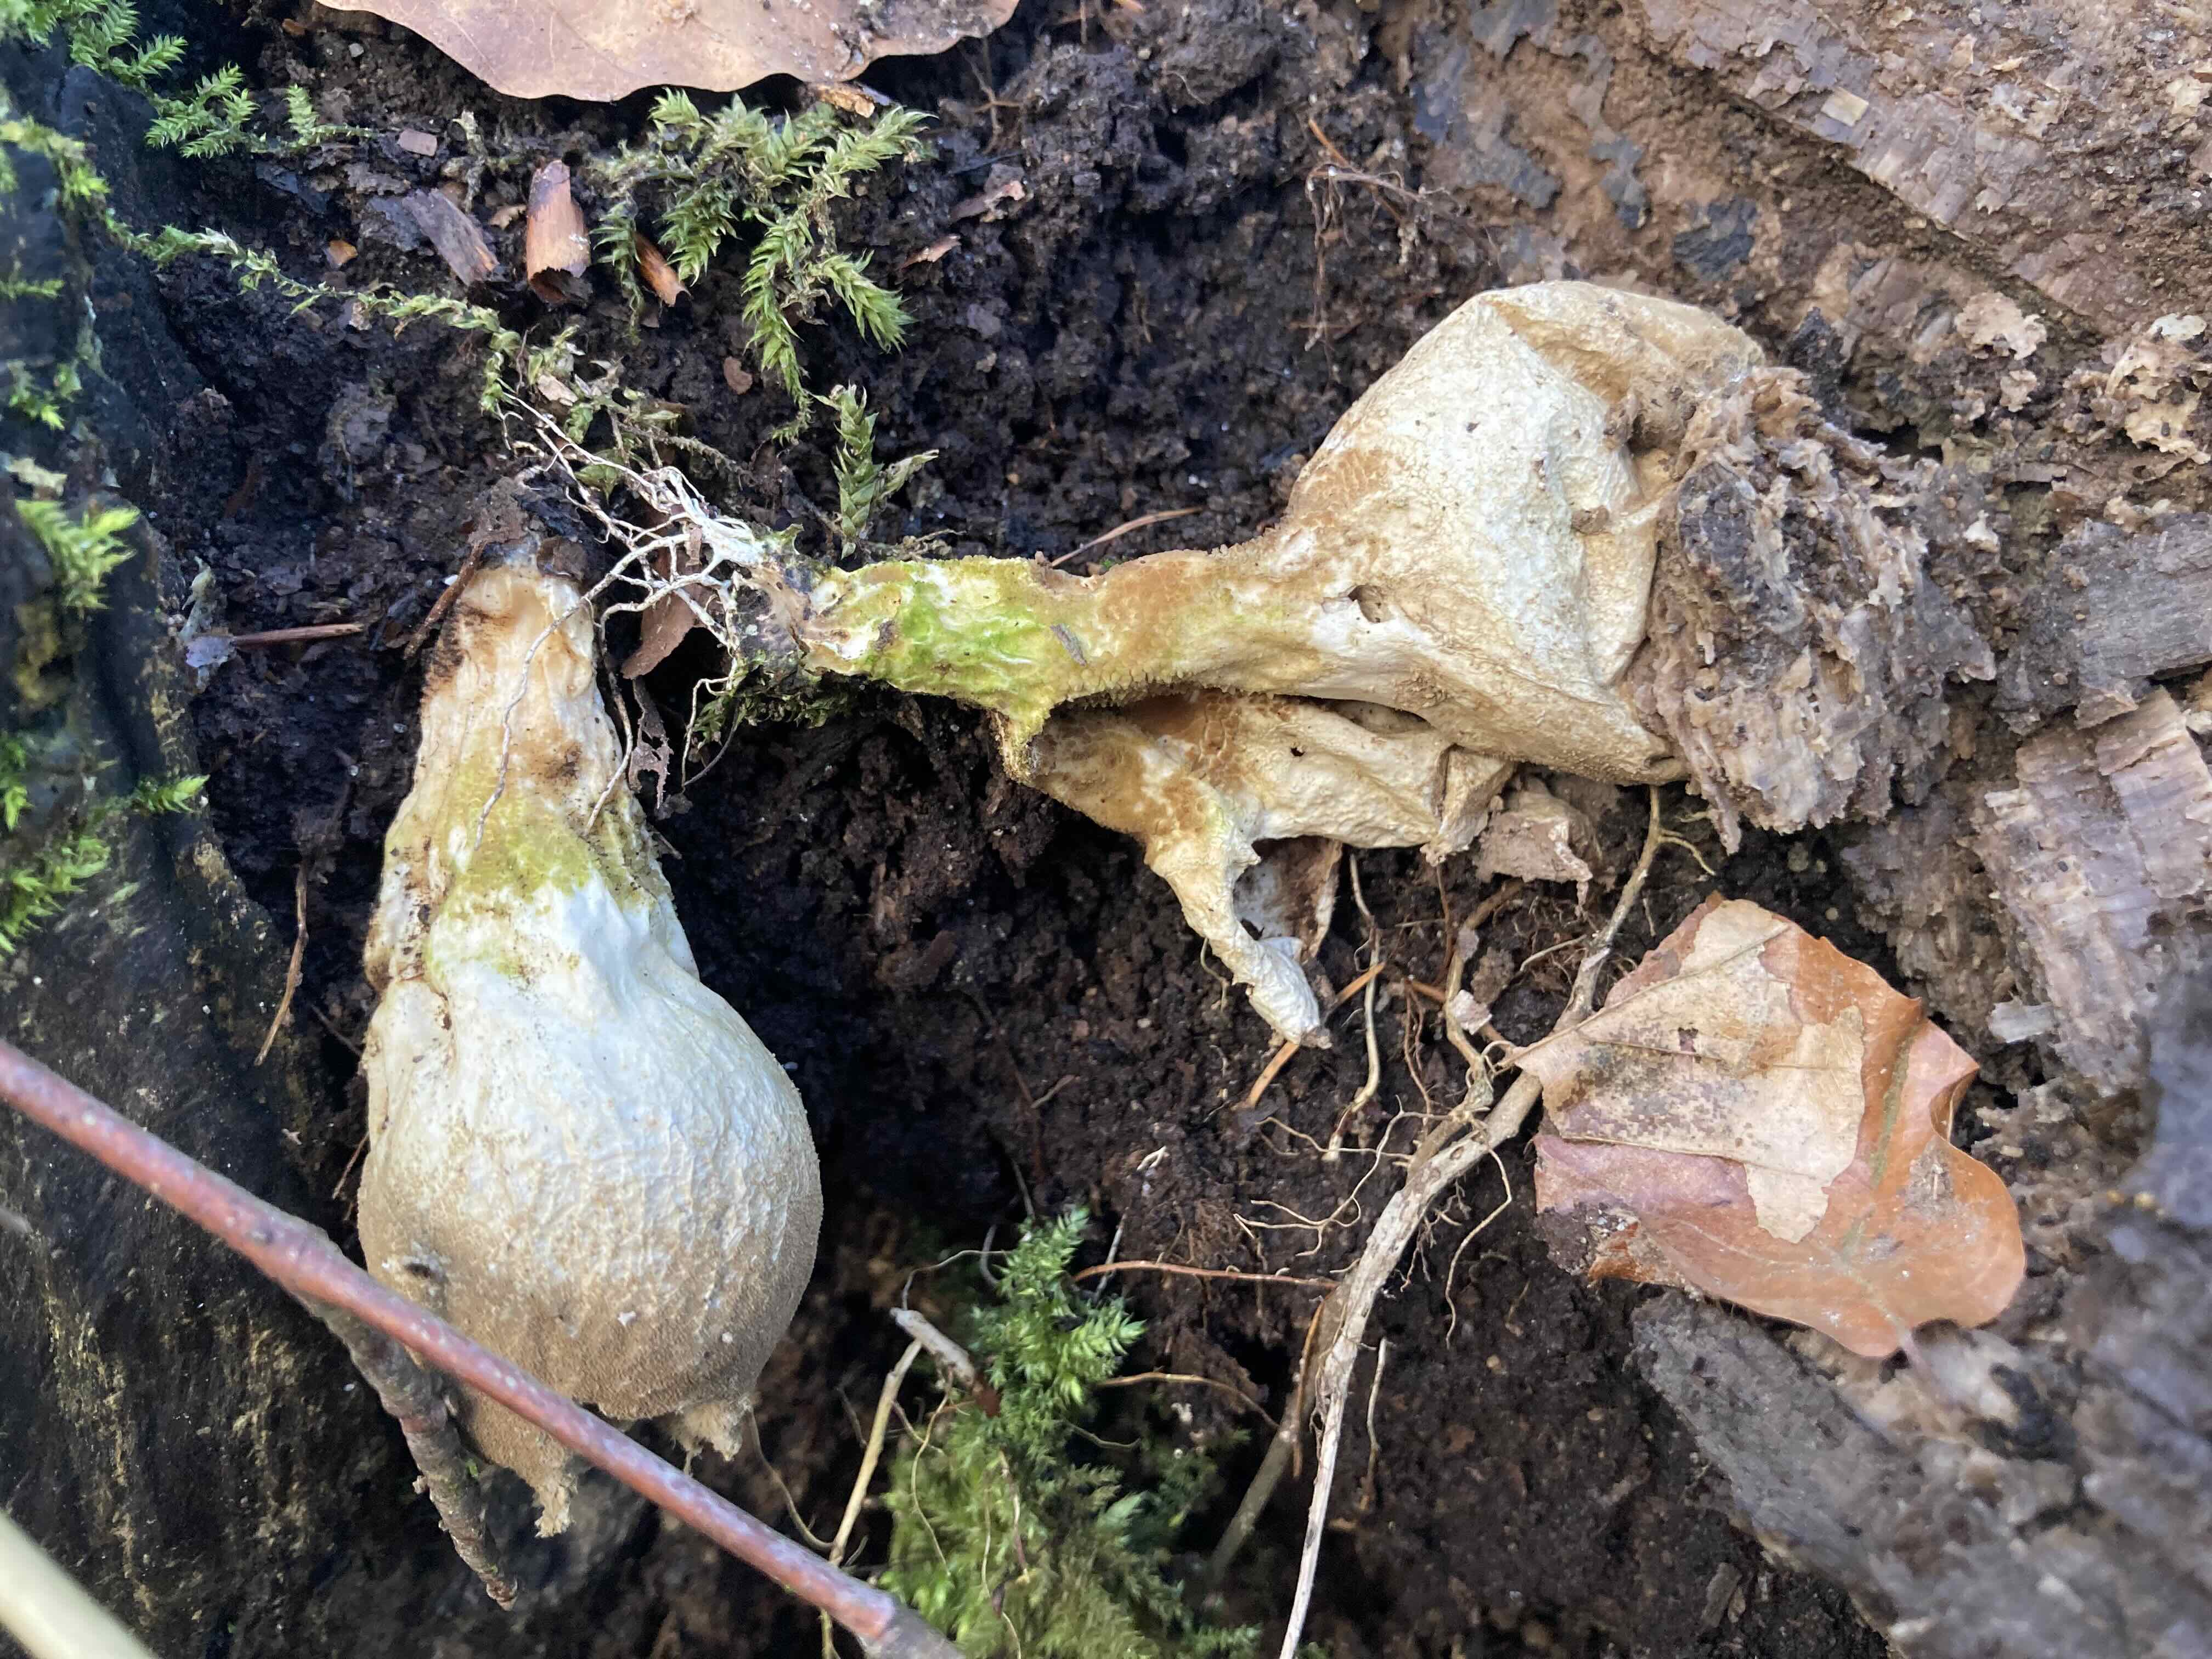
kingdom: Fungi
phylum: Basidiomycota
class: Agaricomycetes
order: Agaricales
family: Lycoperdaceae
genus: Lycoperdon
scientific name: Lycoperdon perlatum
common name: krystal-støvbold
